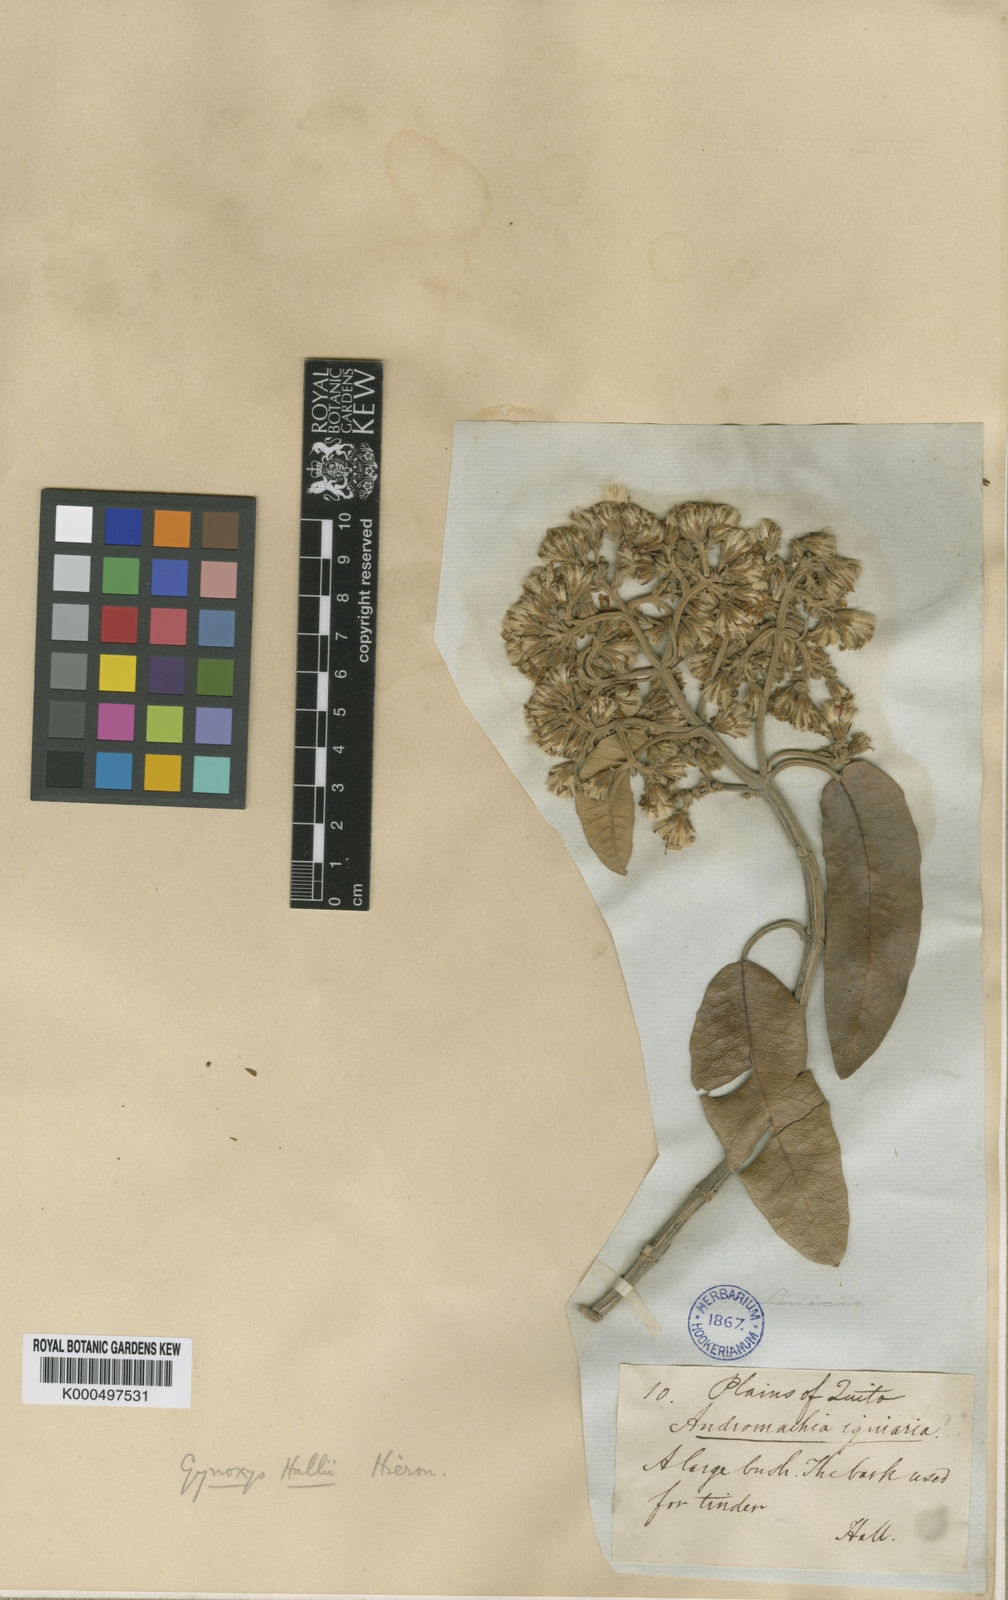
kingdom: Plantae
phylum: Tracheophyta
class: Magnoliopsida
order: Asterales
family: Asteraceae
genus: Gynoxys
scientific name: Gynoxys hallii
